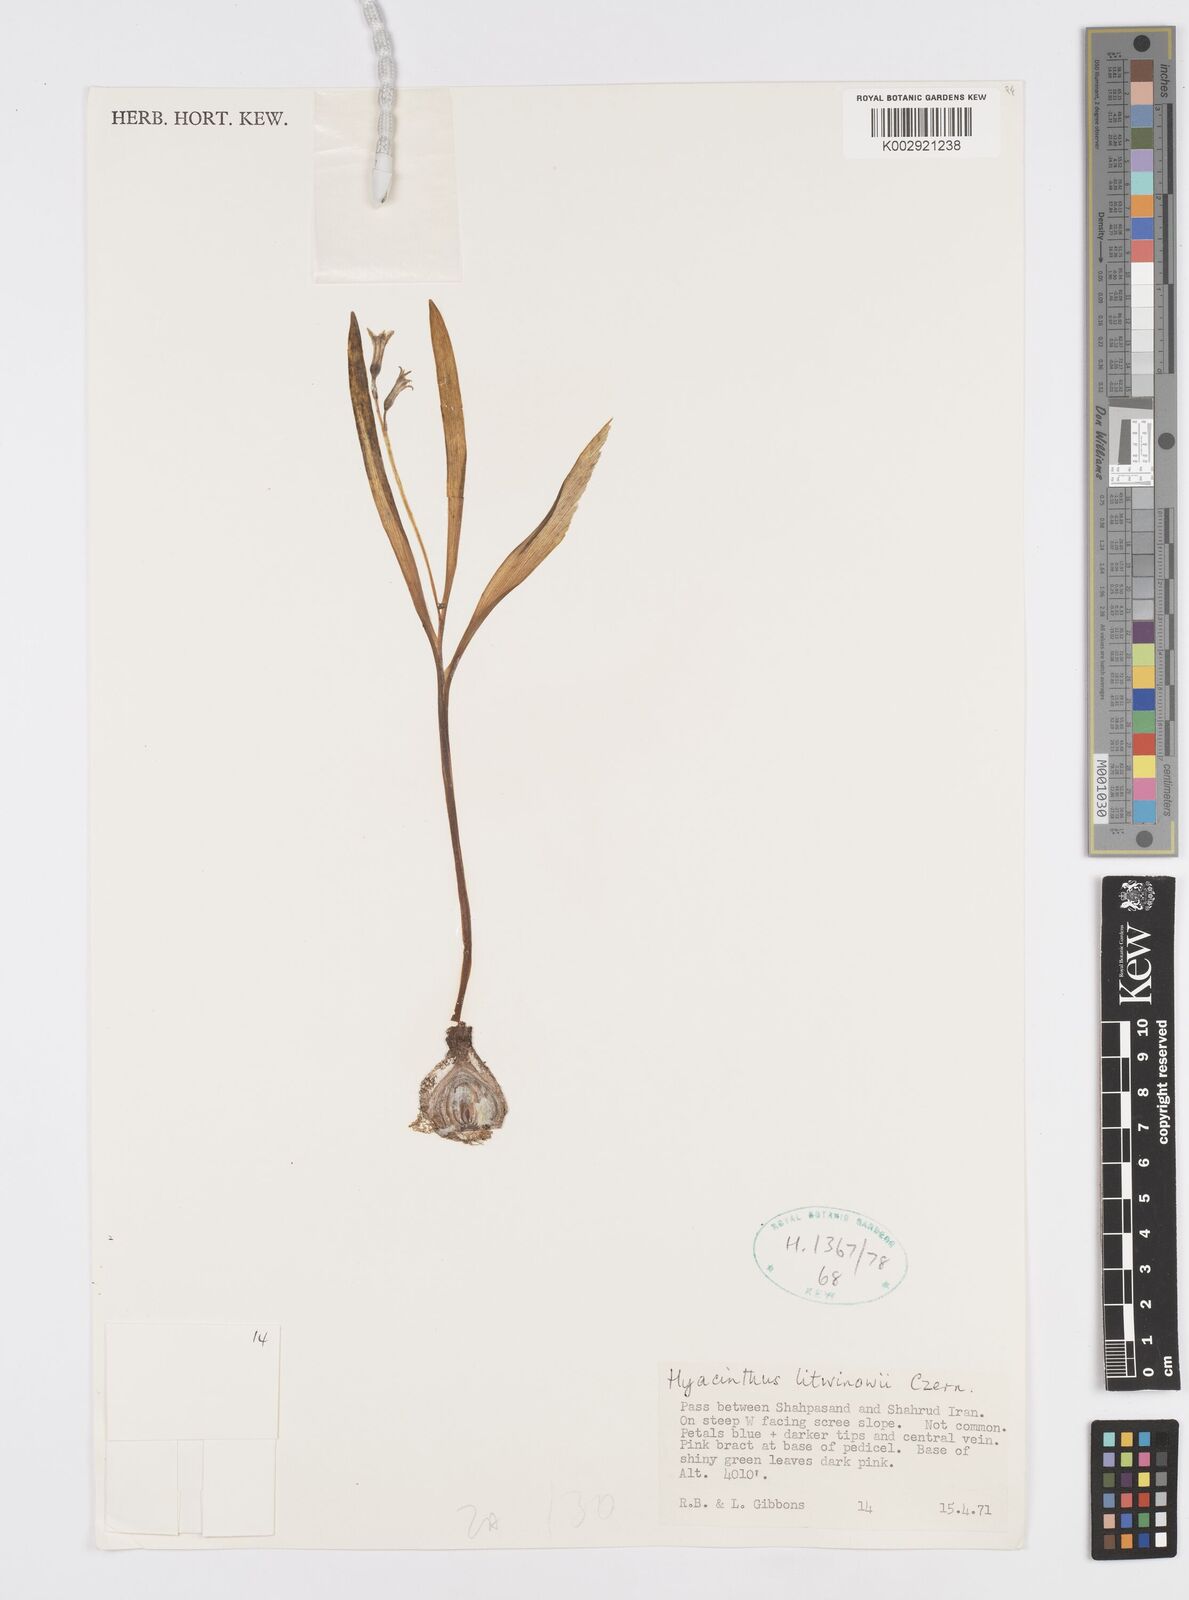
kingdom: Plantae
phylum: Tracheophyta
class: Liliopsida
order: Asparagales
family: Asparagaceae
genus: Hyacinthus
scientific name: Hyacinthus litwinowii
